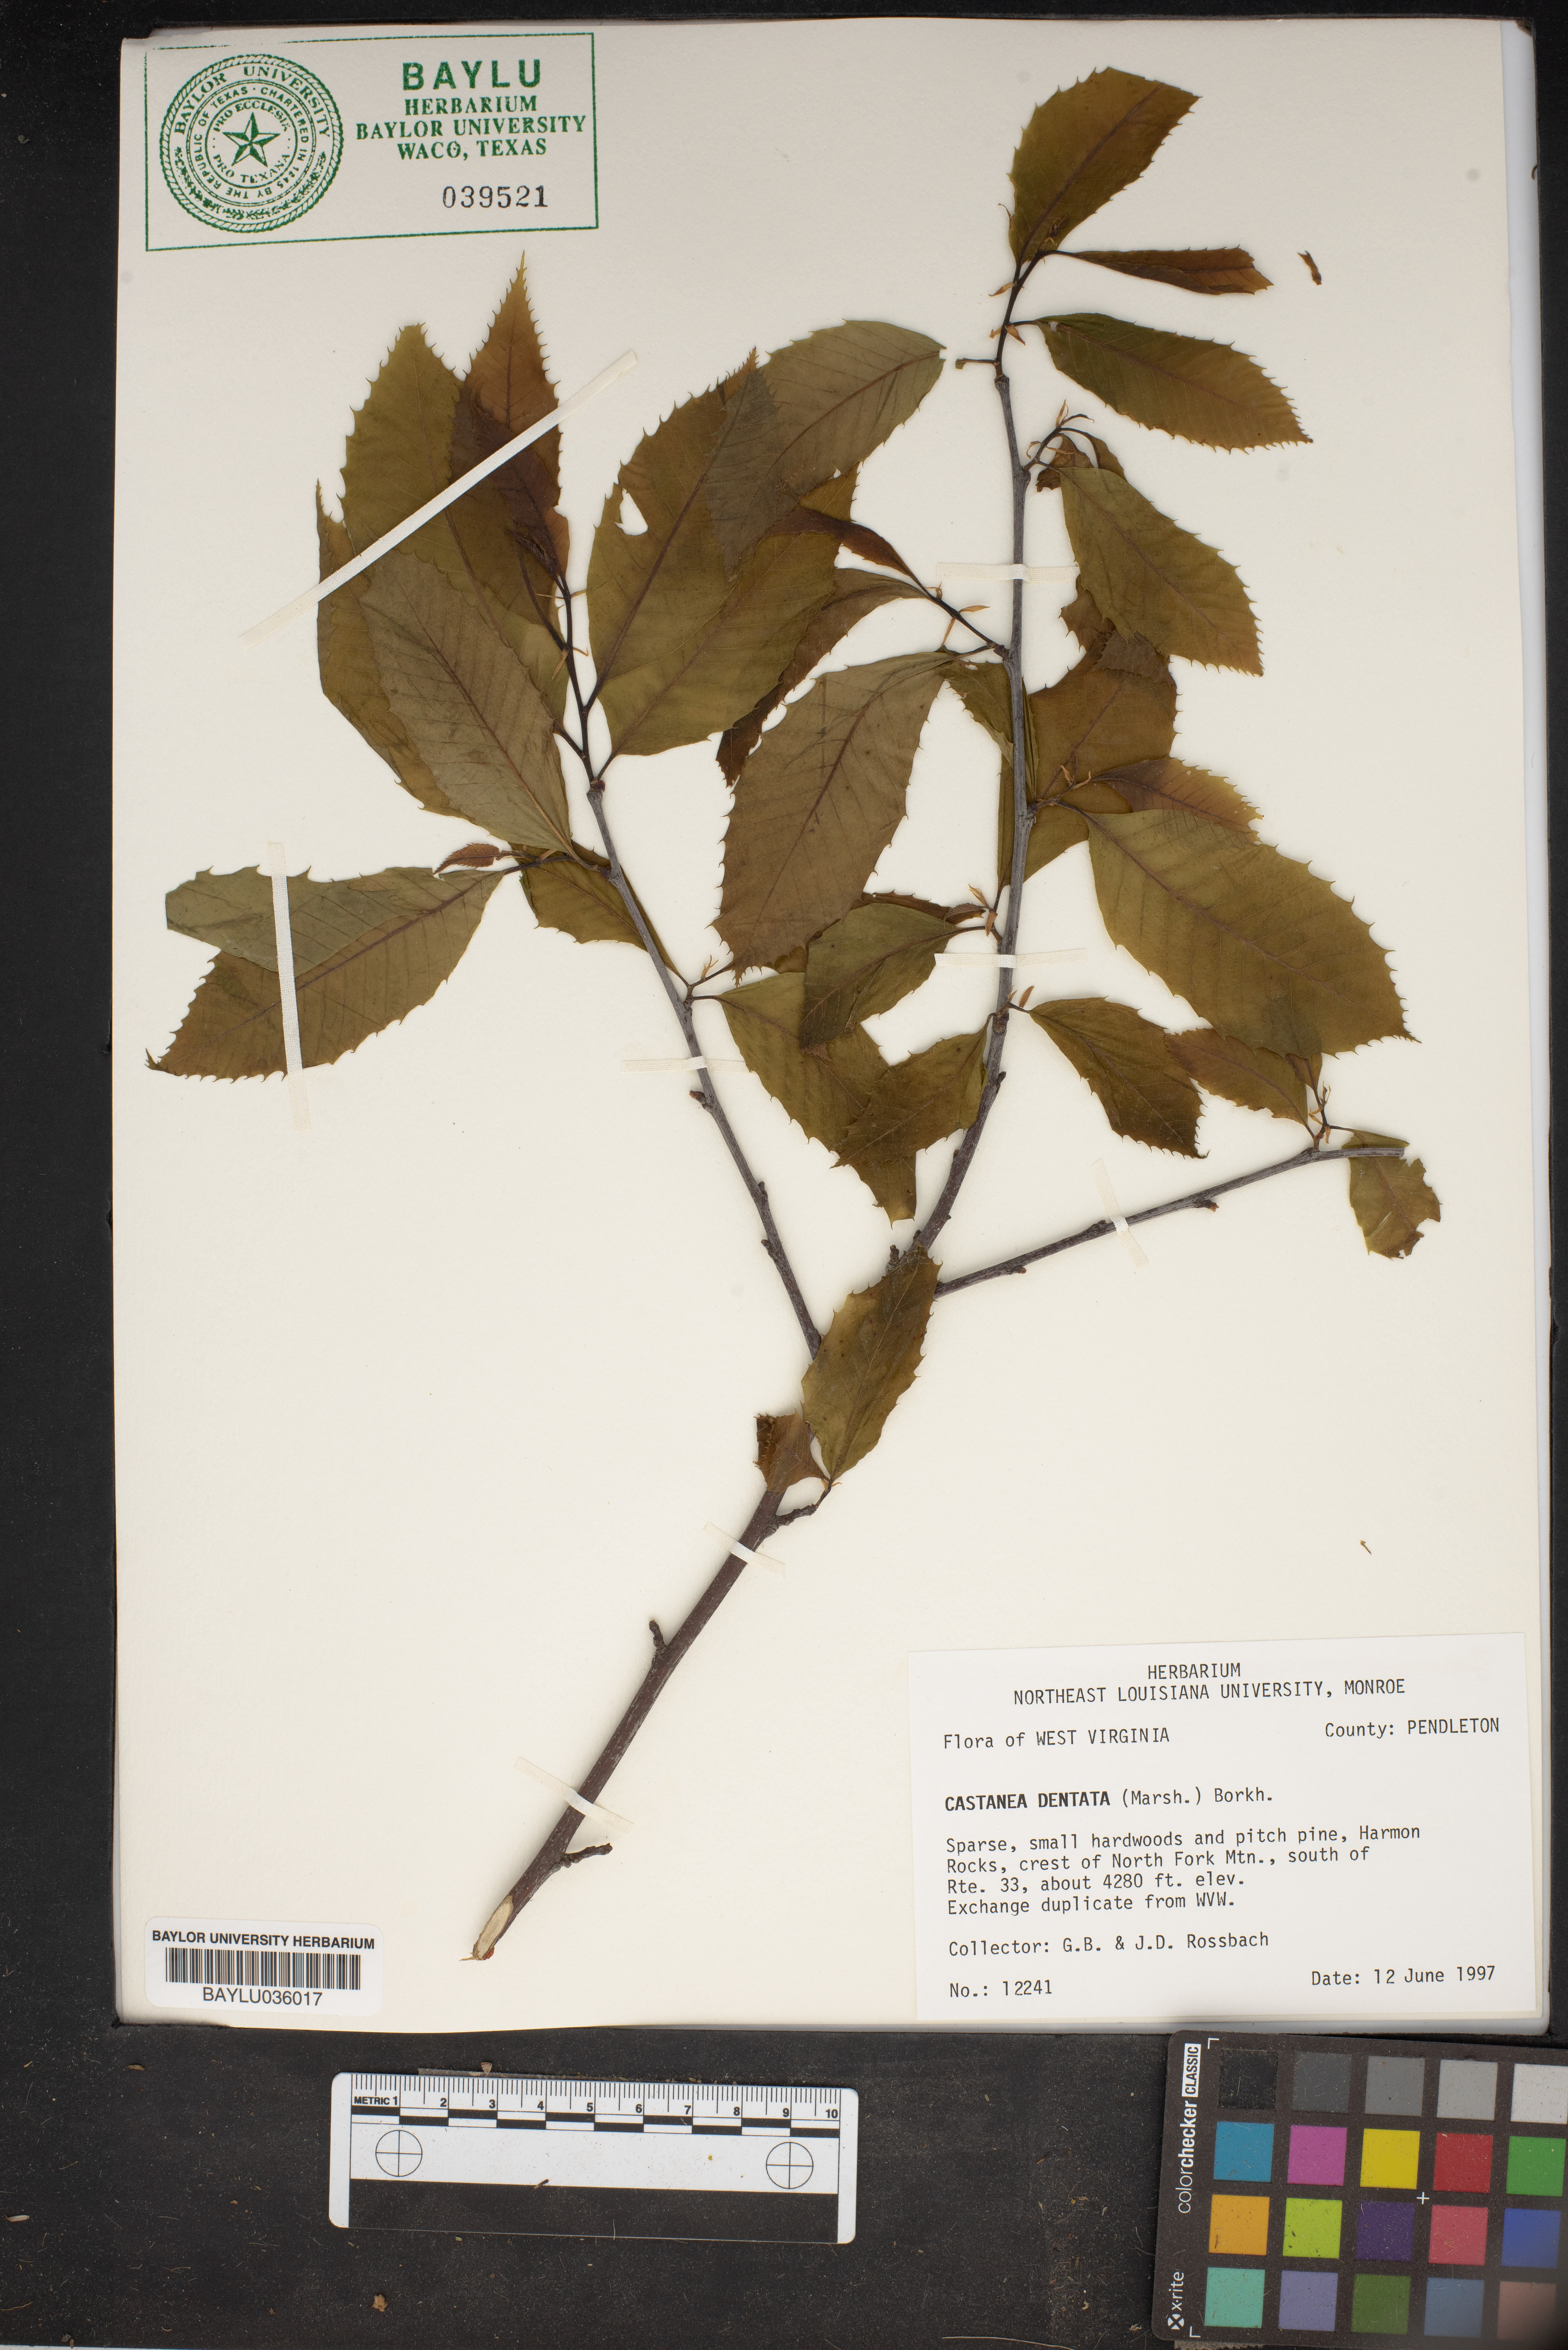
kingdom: Plantae
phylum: Tracheophyta
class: Magnoliopsida
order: Fagales
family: Fagaceae
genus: Castanea
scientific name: Castanea dentata
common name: American chestnut
